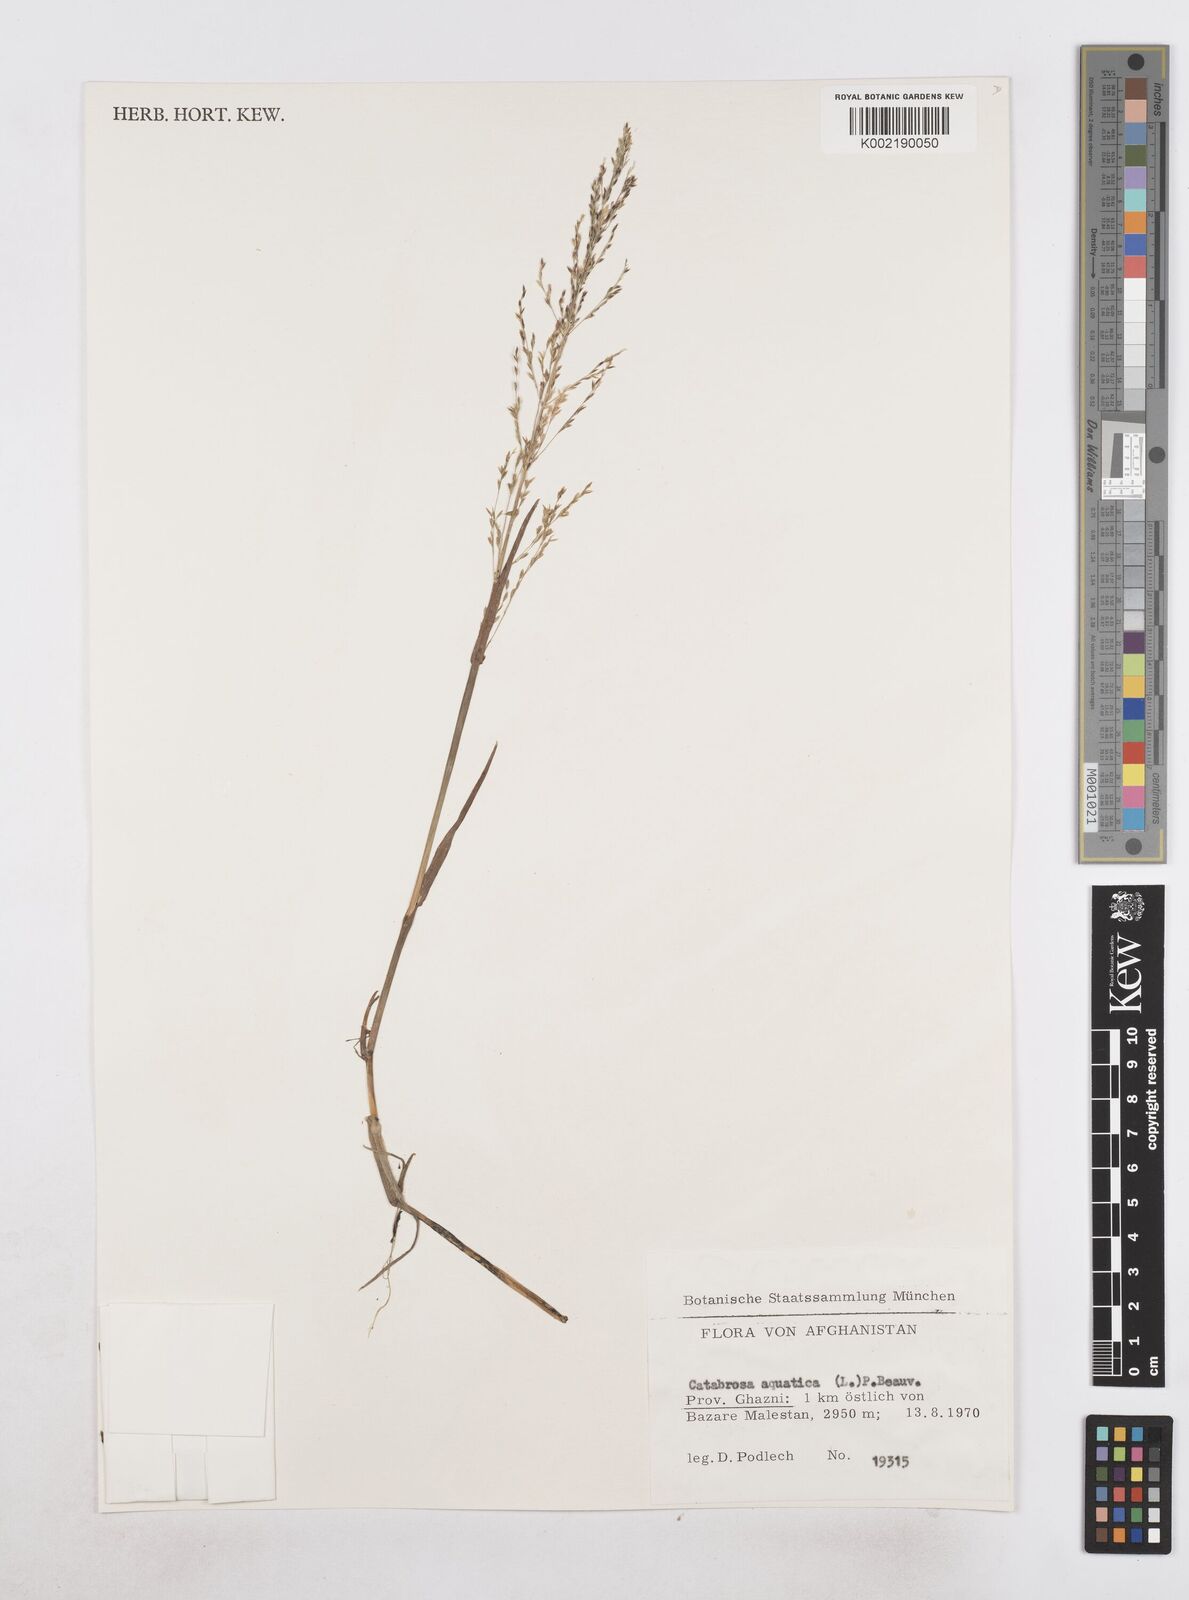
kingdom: Plantae
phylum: Tracheophyta
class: Liliopsida
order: Poales
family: Poaceae
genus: Catabrosa
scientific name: Catabrosa aquatica
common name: Whorl-grass
